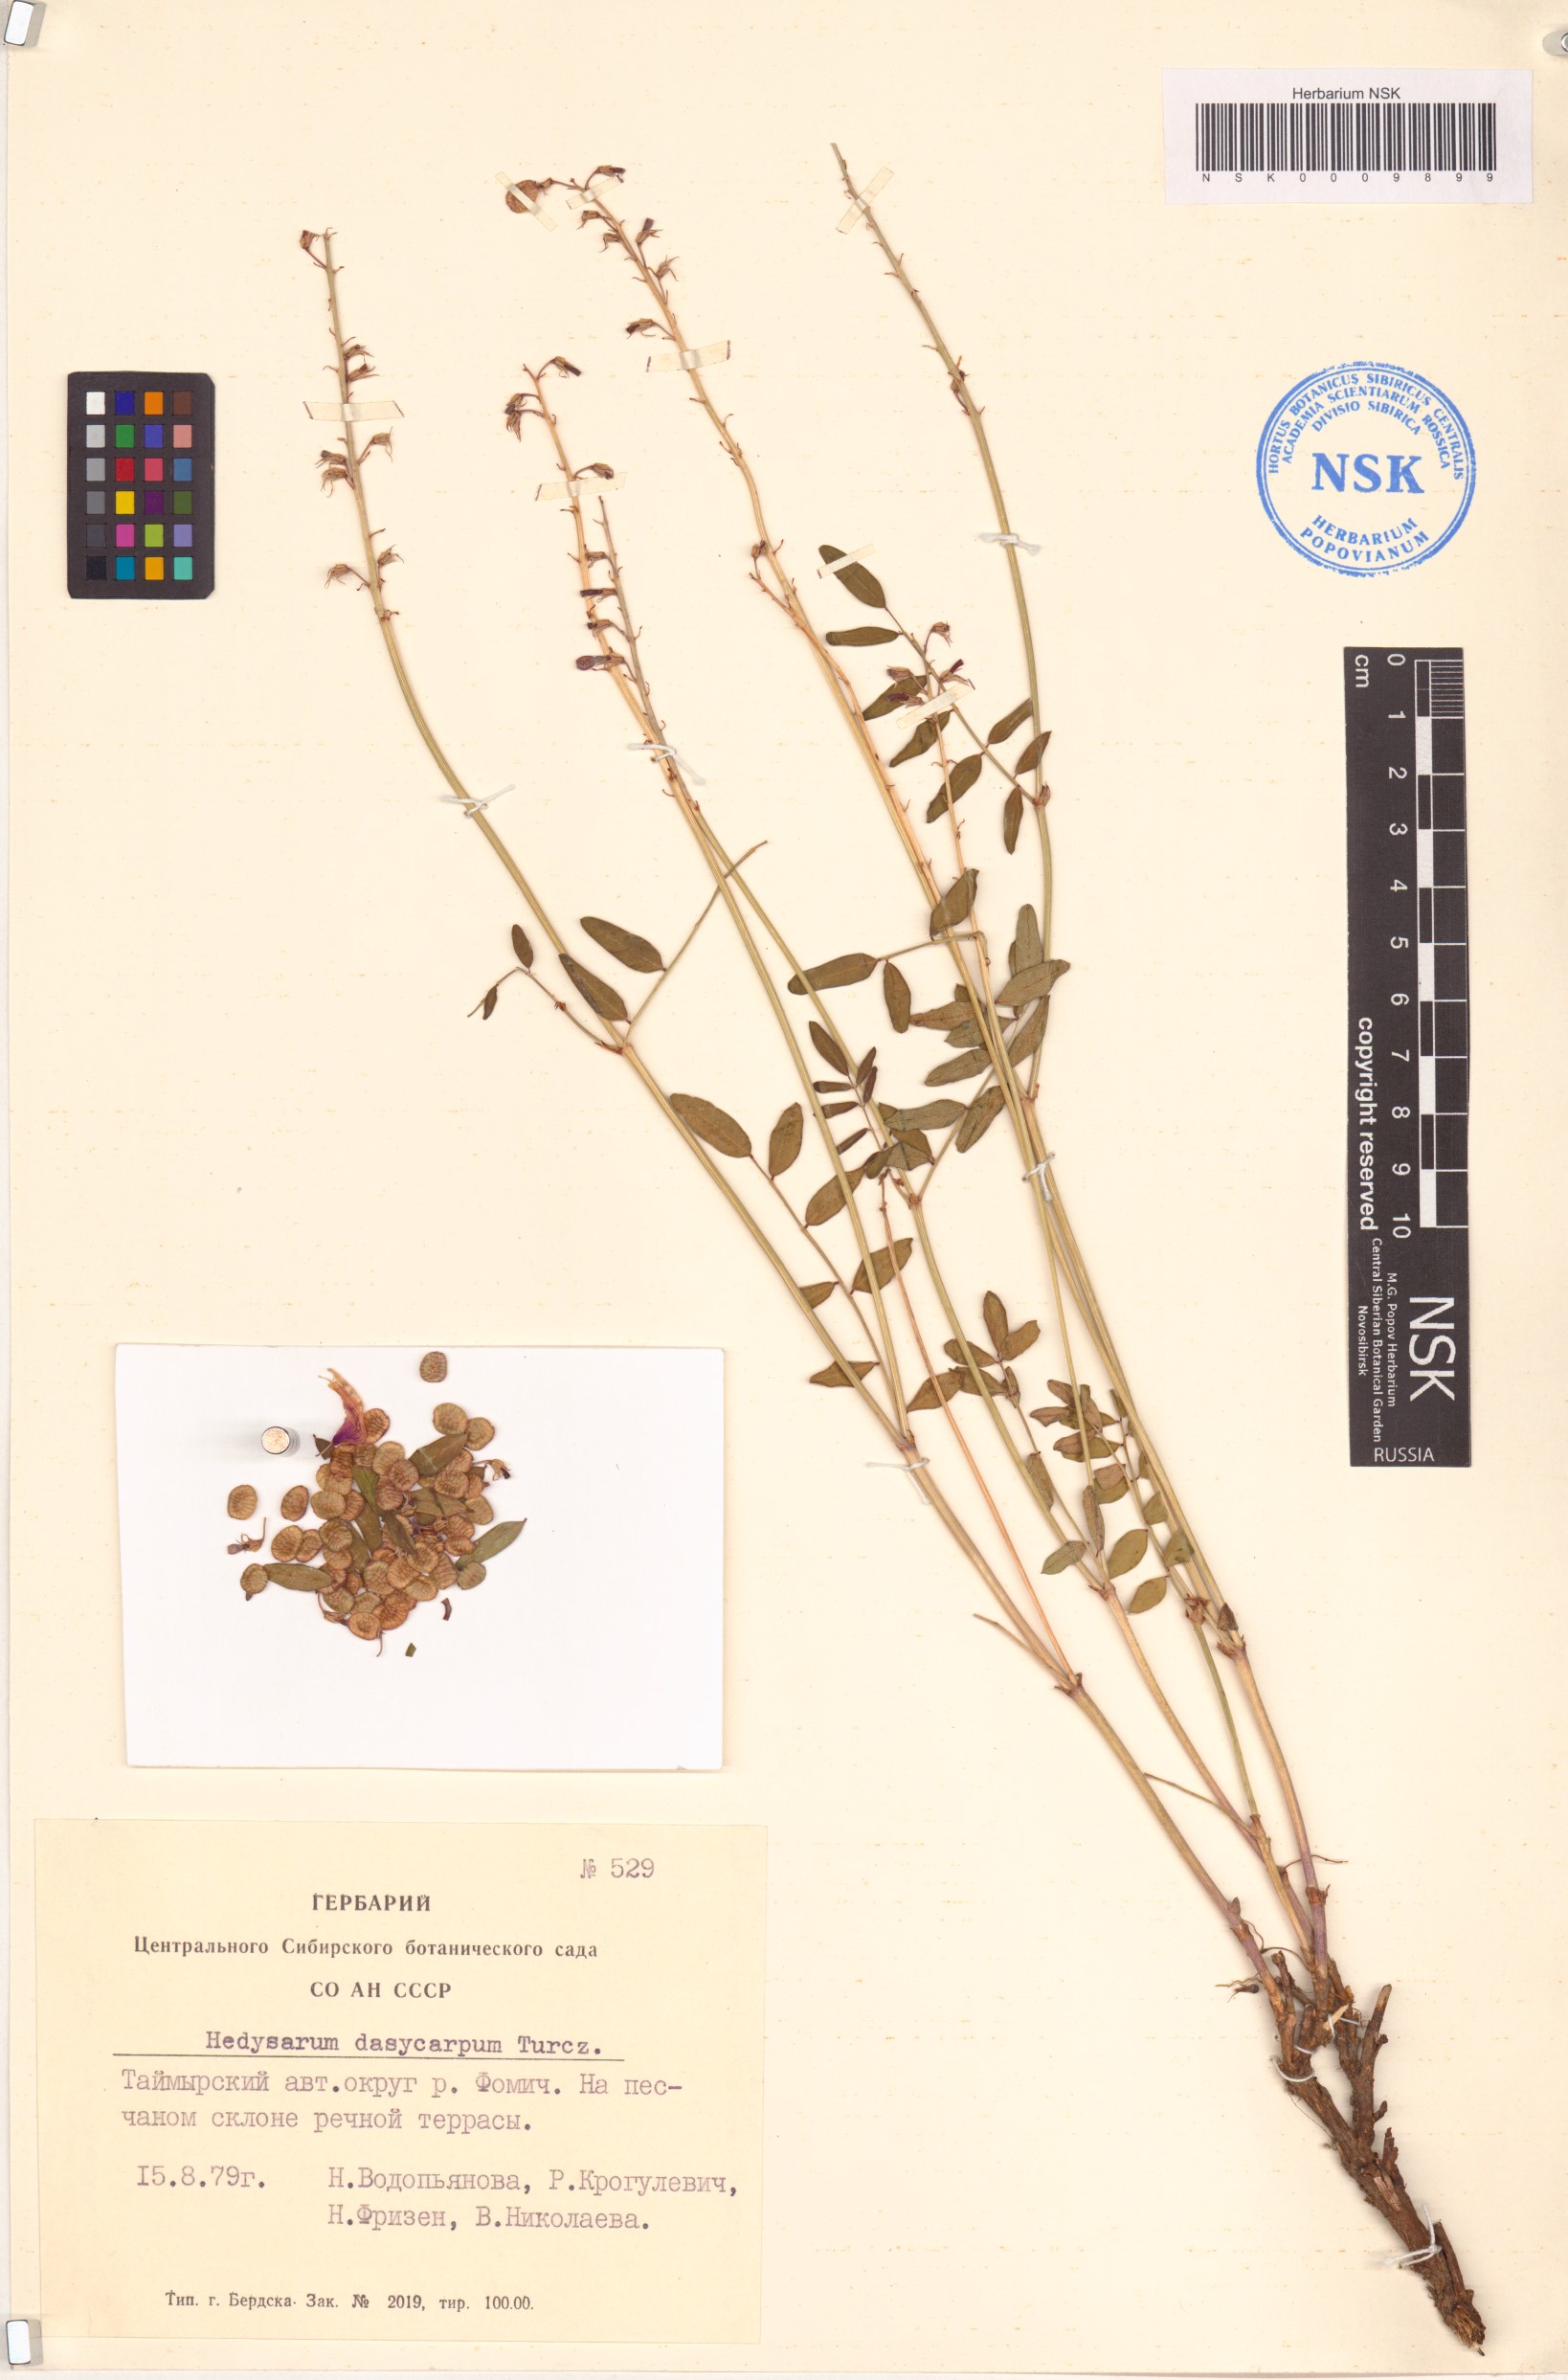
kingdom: Plantae
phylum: Tracheophyta
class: Magnoliopsida
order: Fabales
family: Fabaceae
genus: Hedysarum
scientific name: Hedysarum dasycarpum
